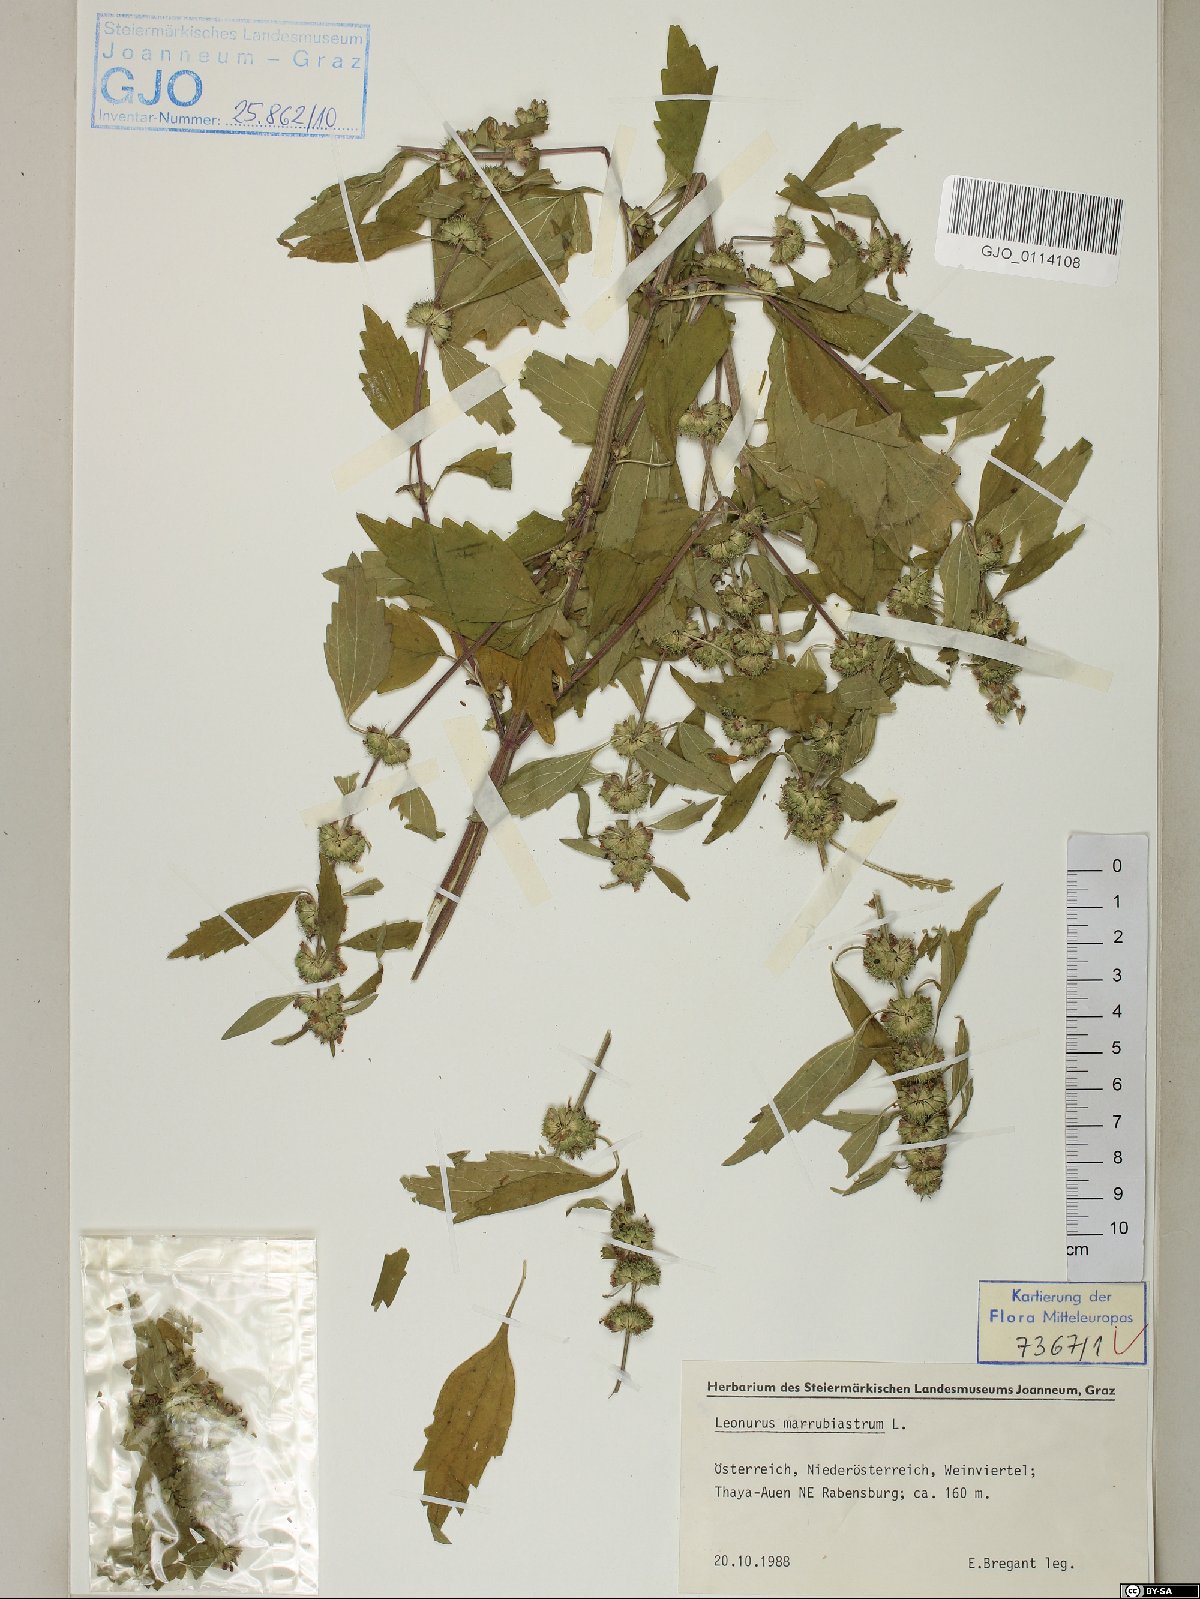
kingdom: Plantae
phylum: Tracheophyta
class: Magnoliopsida
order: Lamiales
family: Lamiaceae
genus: Chaiturus
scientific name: Chaiturus marrubiastrum
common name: Lion's tail
